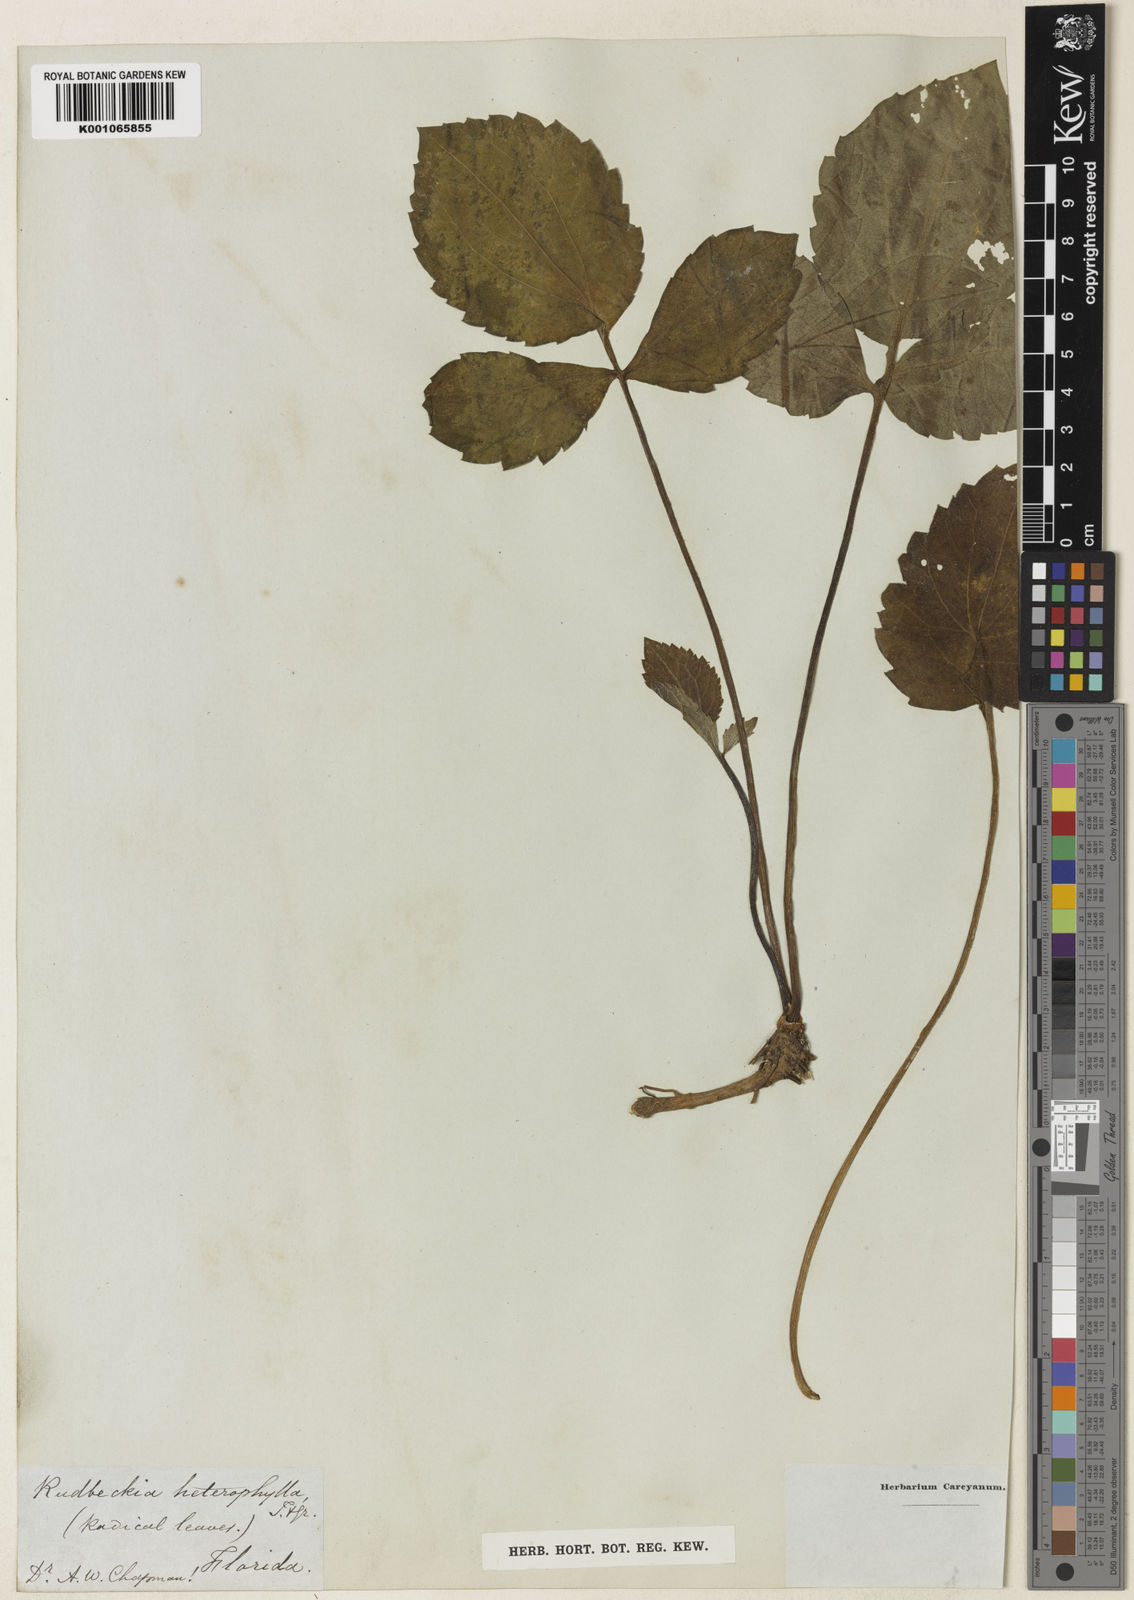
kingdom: Plantae
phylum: Tracheophyta
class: Magnoliopsida
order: Asterales
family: Asteraceae
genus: Rudbeckia
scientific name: Rudbeckia laciniata
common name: Coneflower
